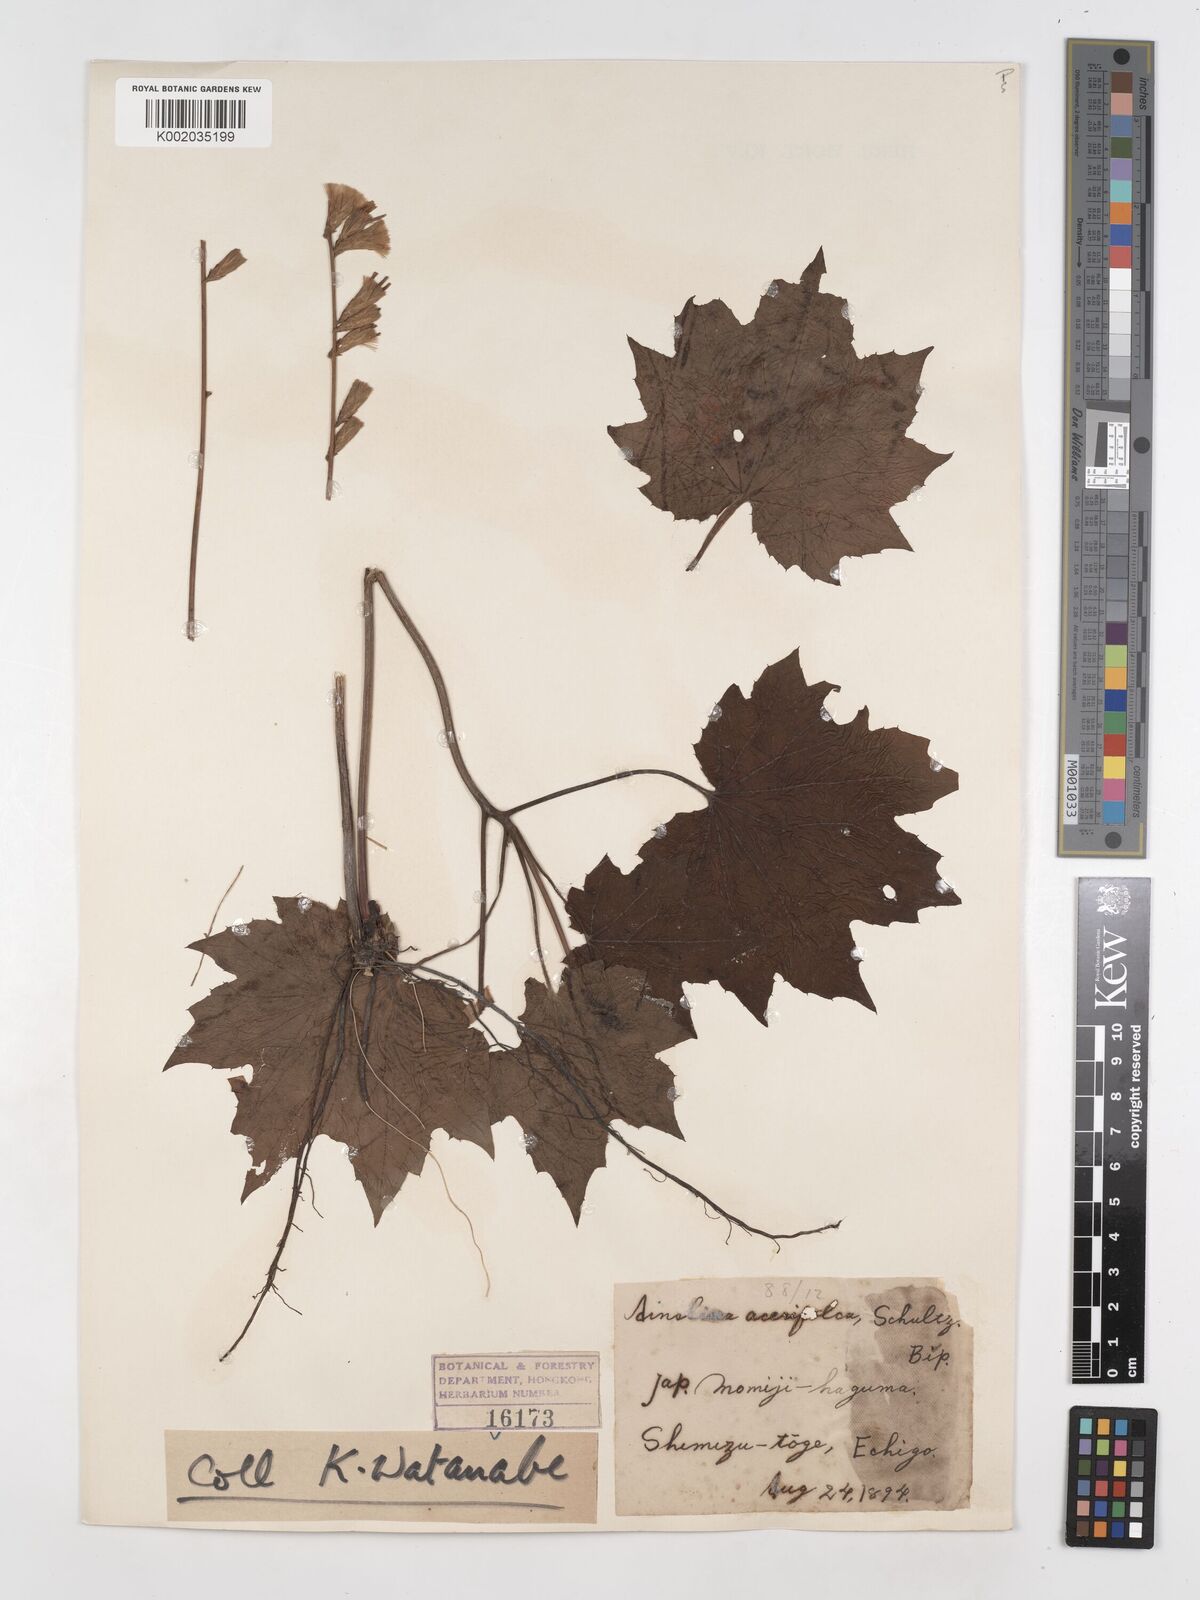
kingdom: Plantae
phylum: Tracheophyta
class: Magnoliopsida
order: Asterales
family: Asteraceae
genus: Ainsliaea
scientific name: Ainsliaea acerifolia
